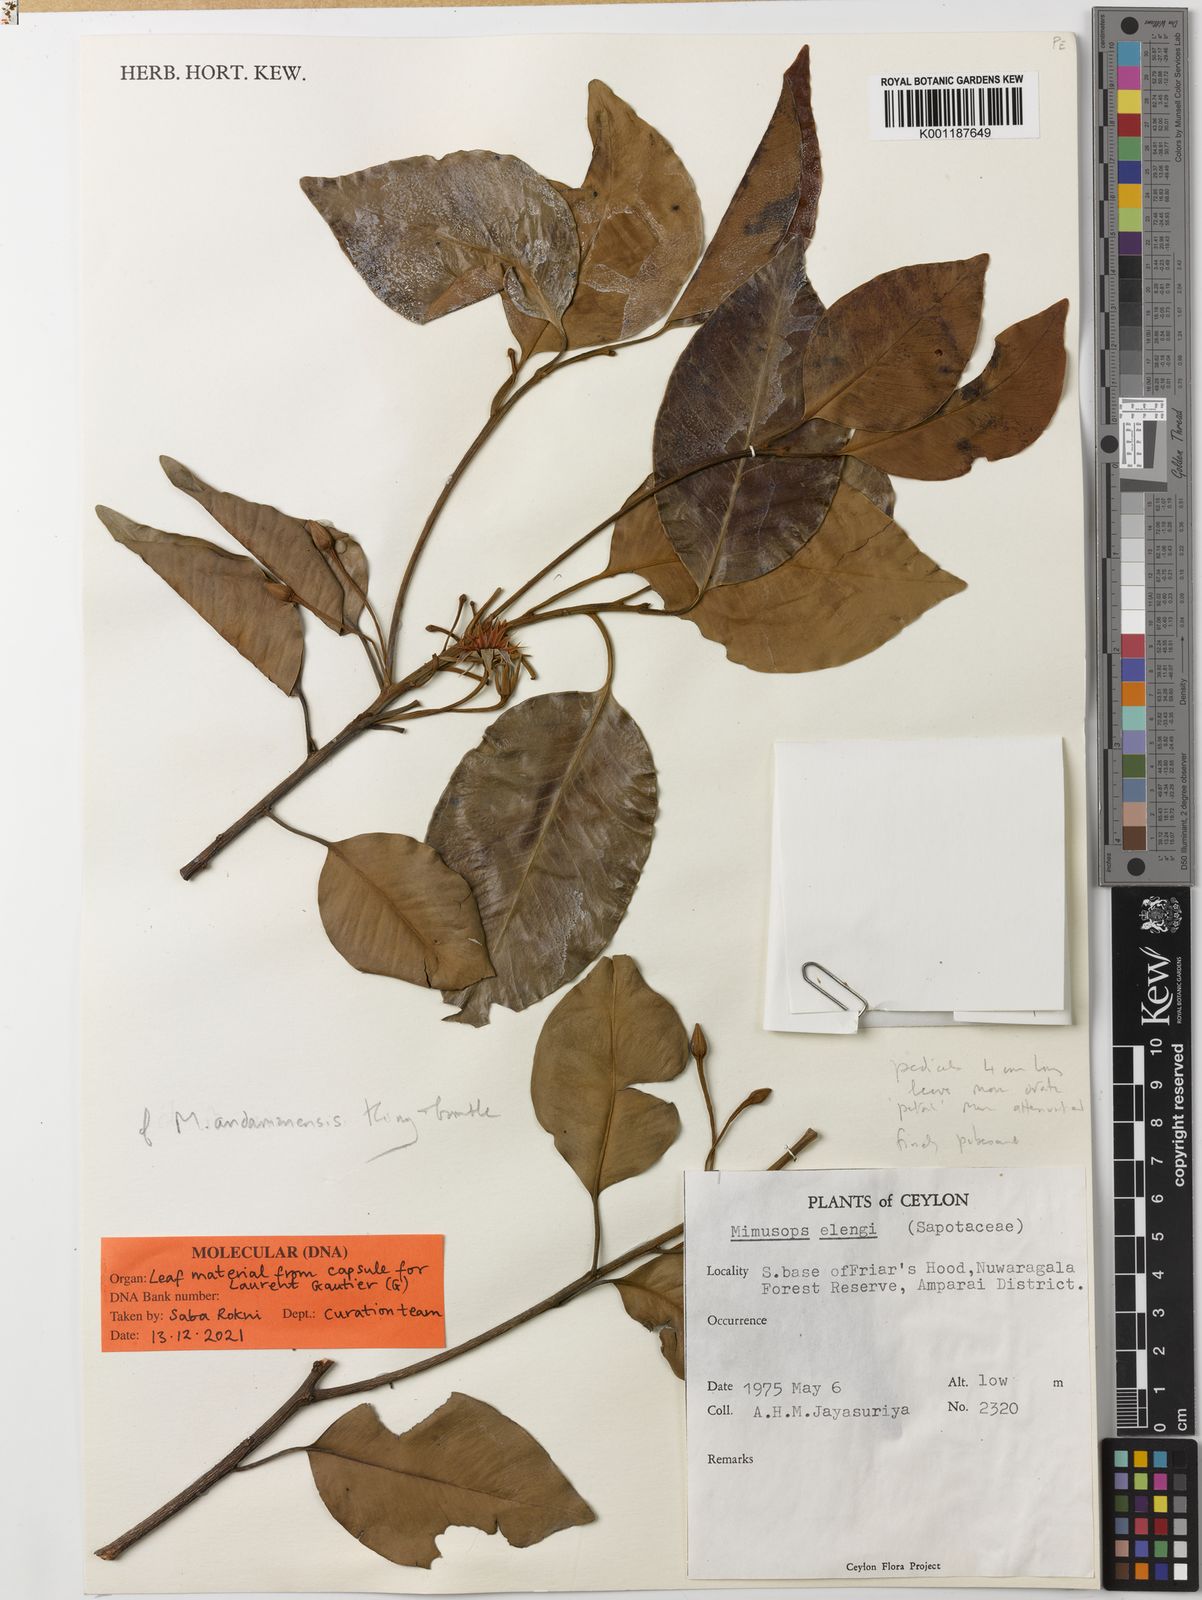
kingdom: Plantae
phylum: Tracheophyta
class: Magnoliopsida
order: Ericales
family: Sapotaceae
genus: Mimusops
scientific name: Mimusops andamanensis
